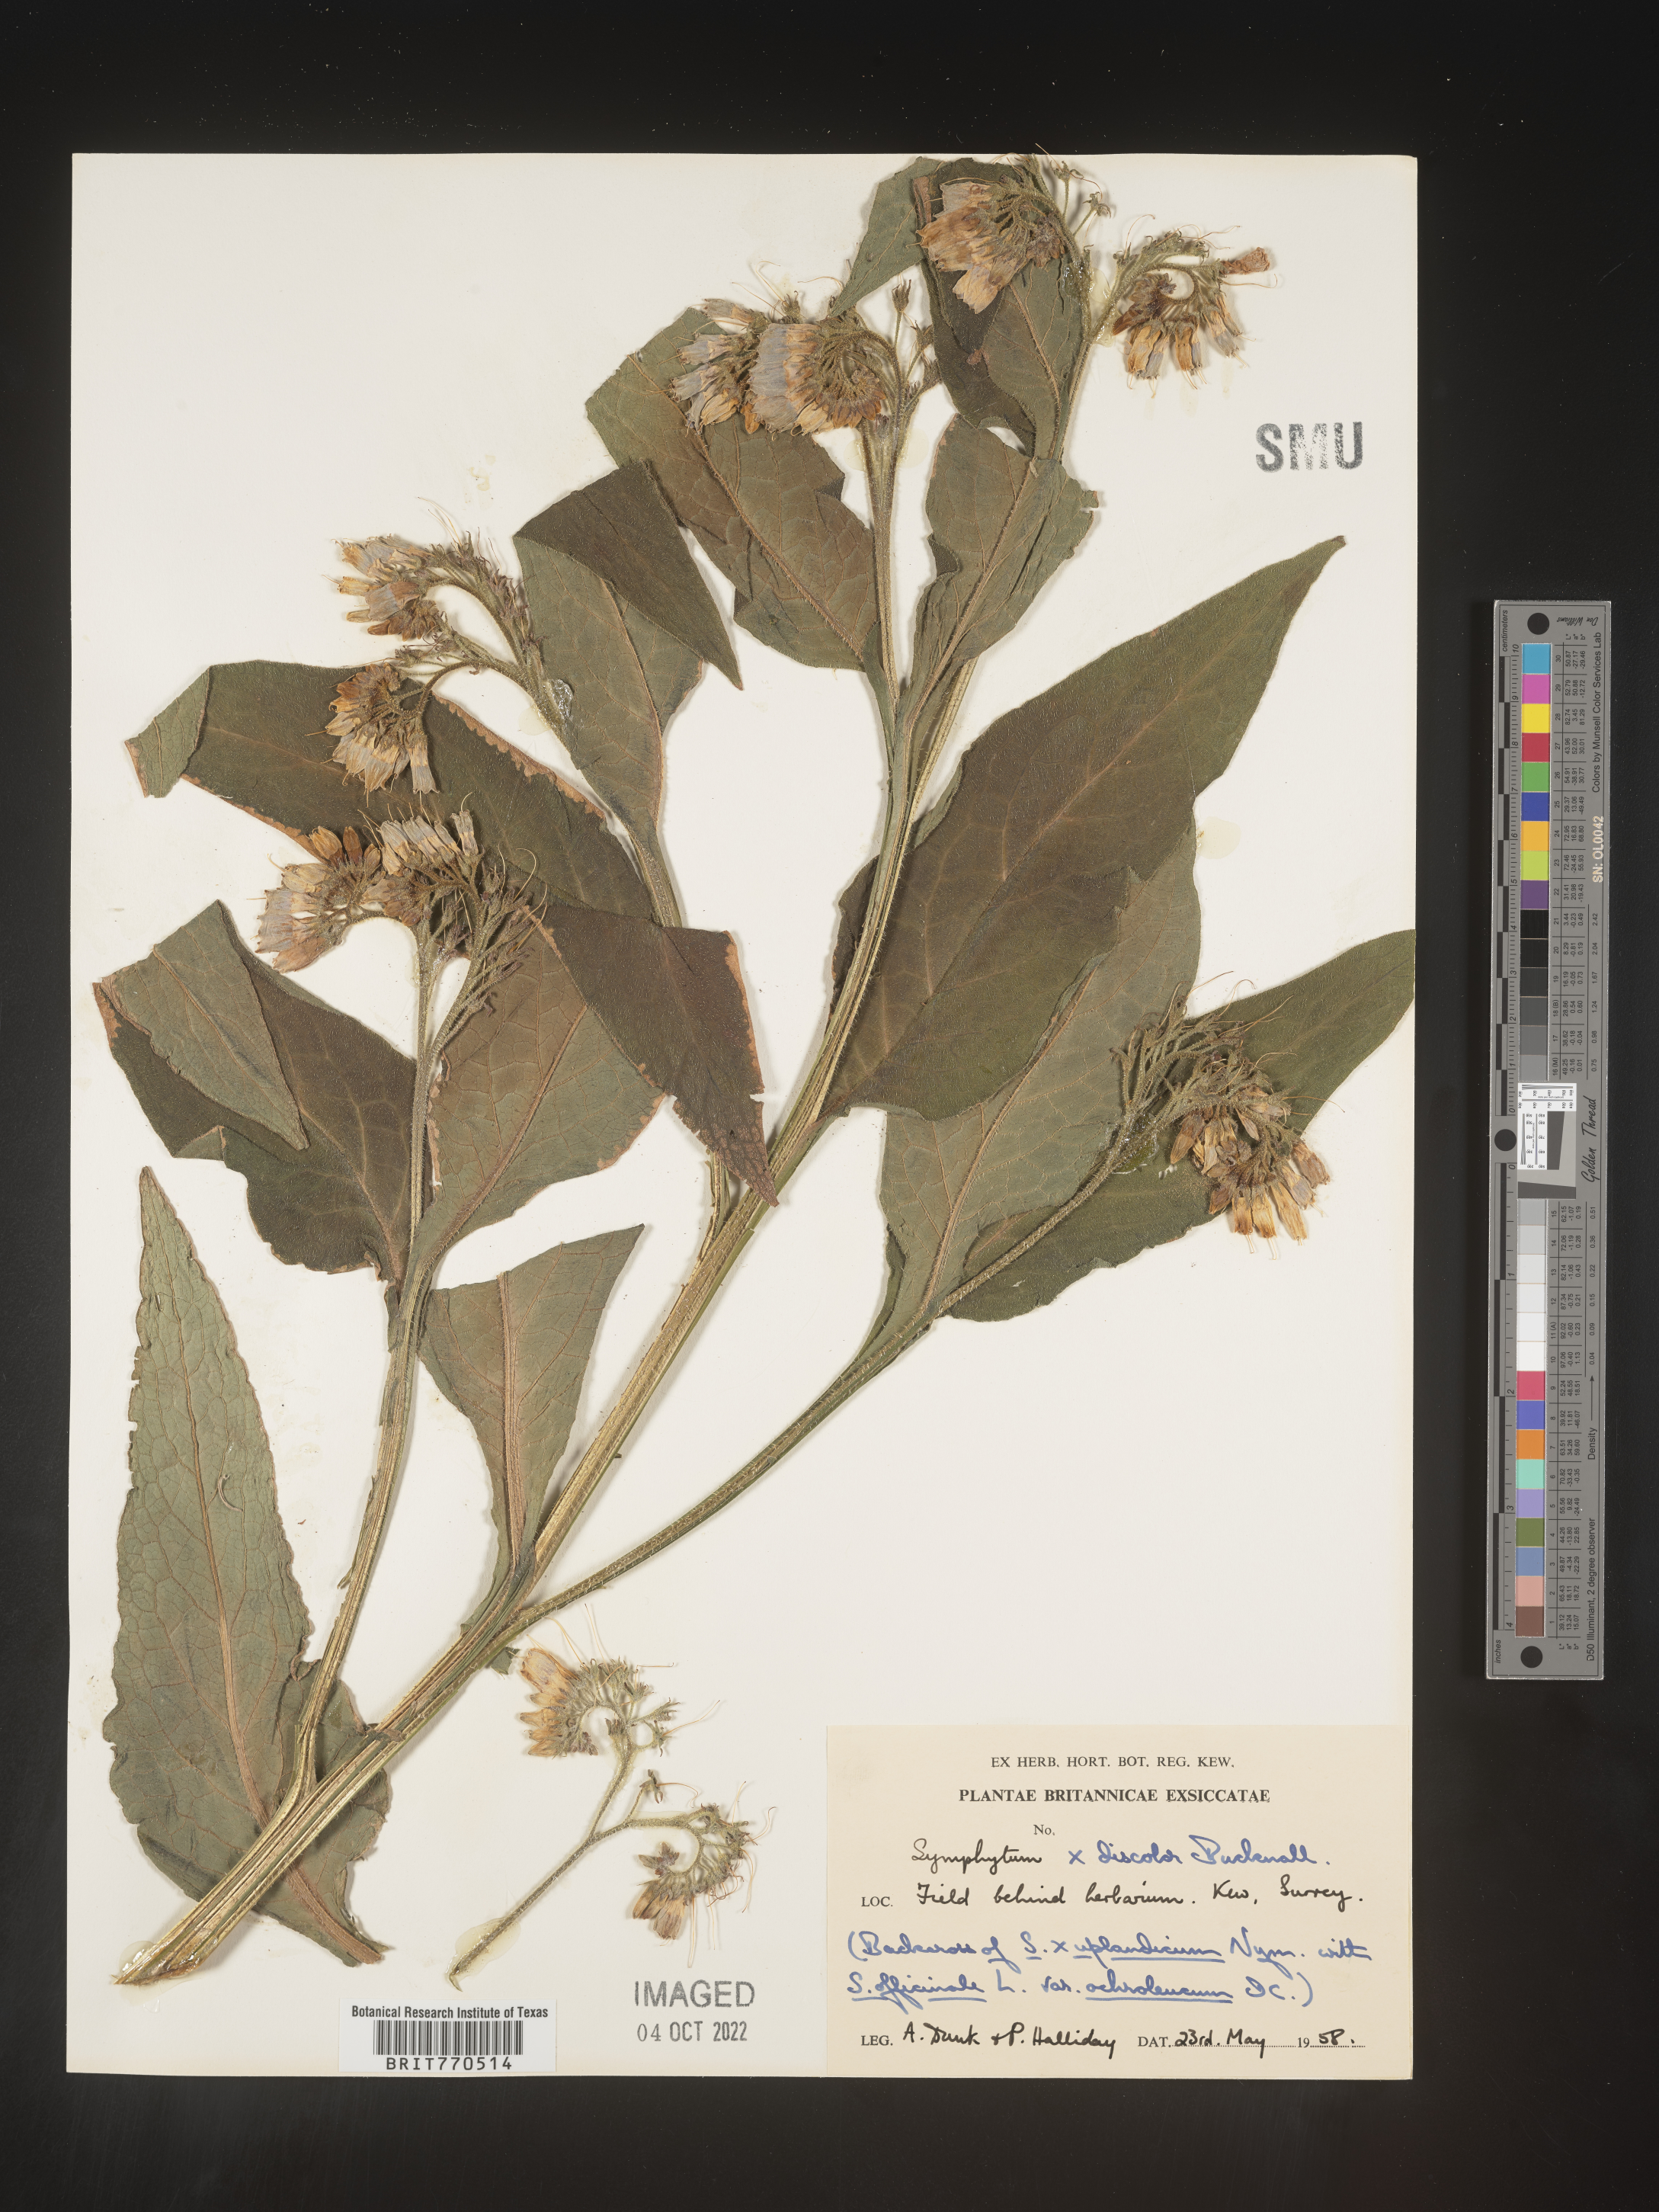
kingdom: Plantae
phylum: Tracheophyta
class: Magnoliopsida
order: Boraginales
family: Boraginaceae
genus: Symphytum
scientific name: Symphytum
